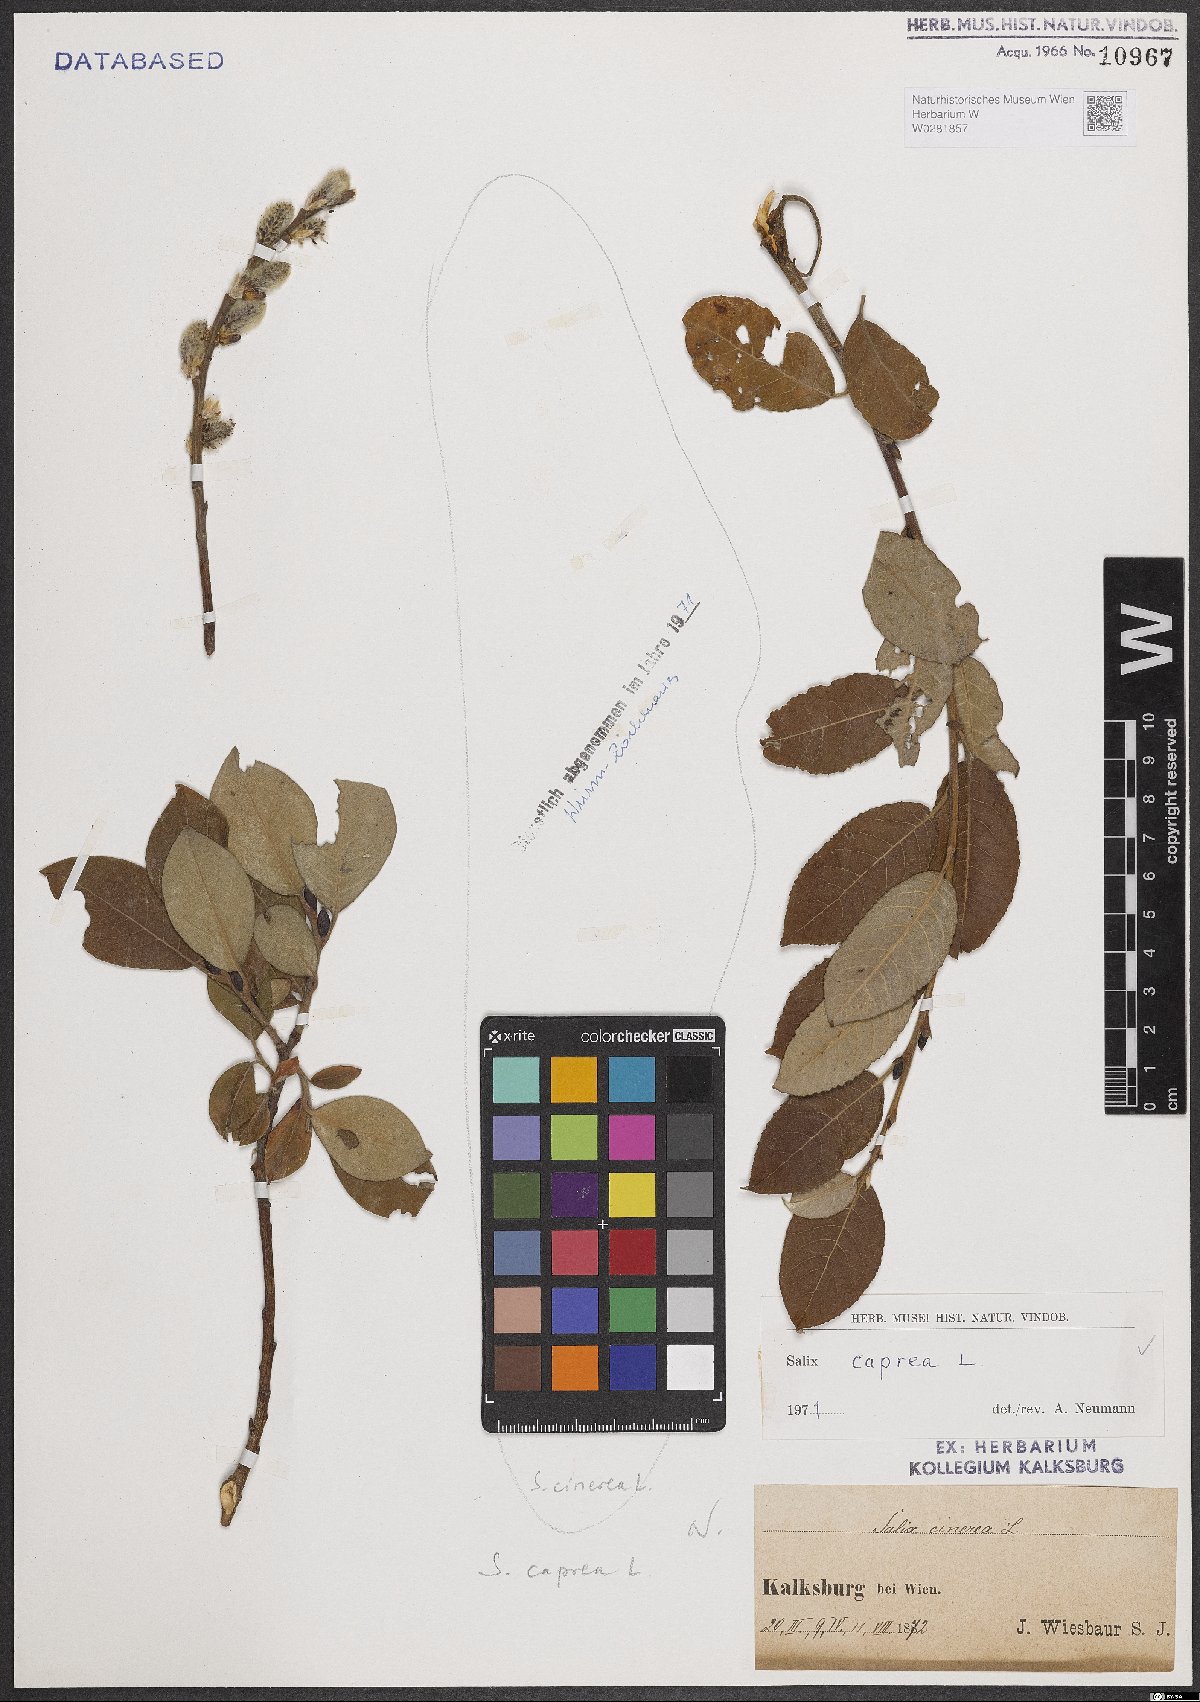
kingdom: Plantae
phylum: Tracheophyta
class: Magnoliopsida
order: Malpighiales
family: Salicaceae
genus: Salix
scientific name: Salix caprea
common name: Goat willow
